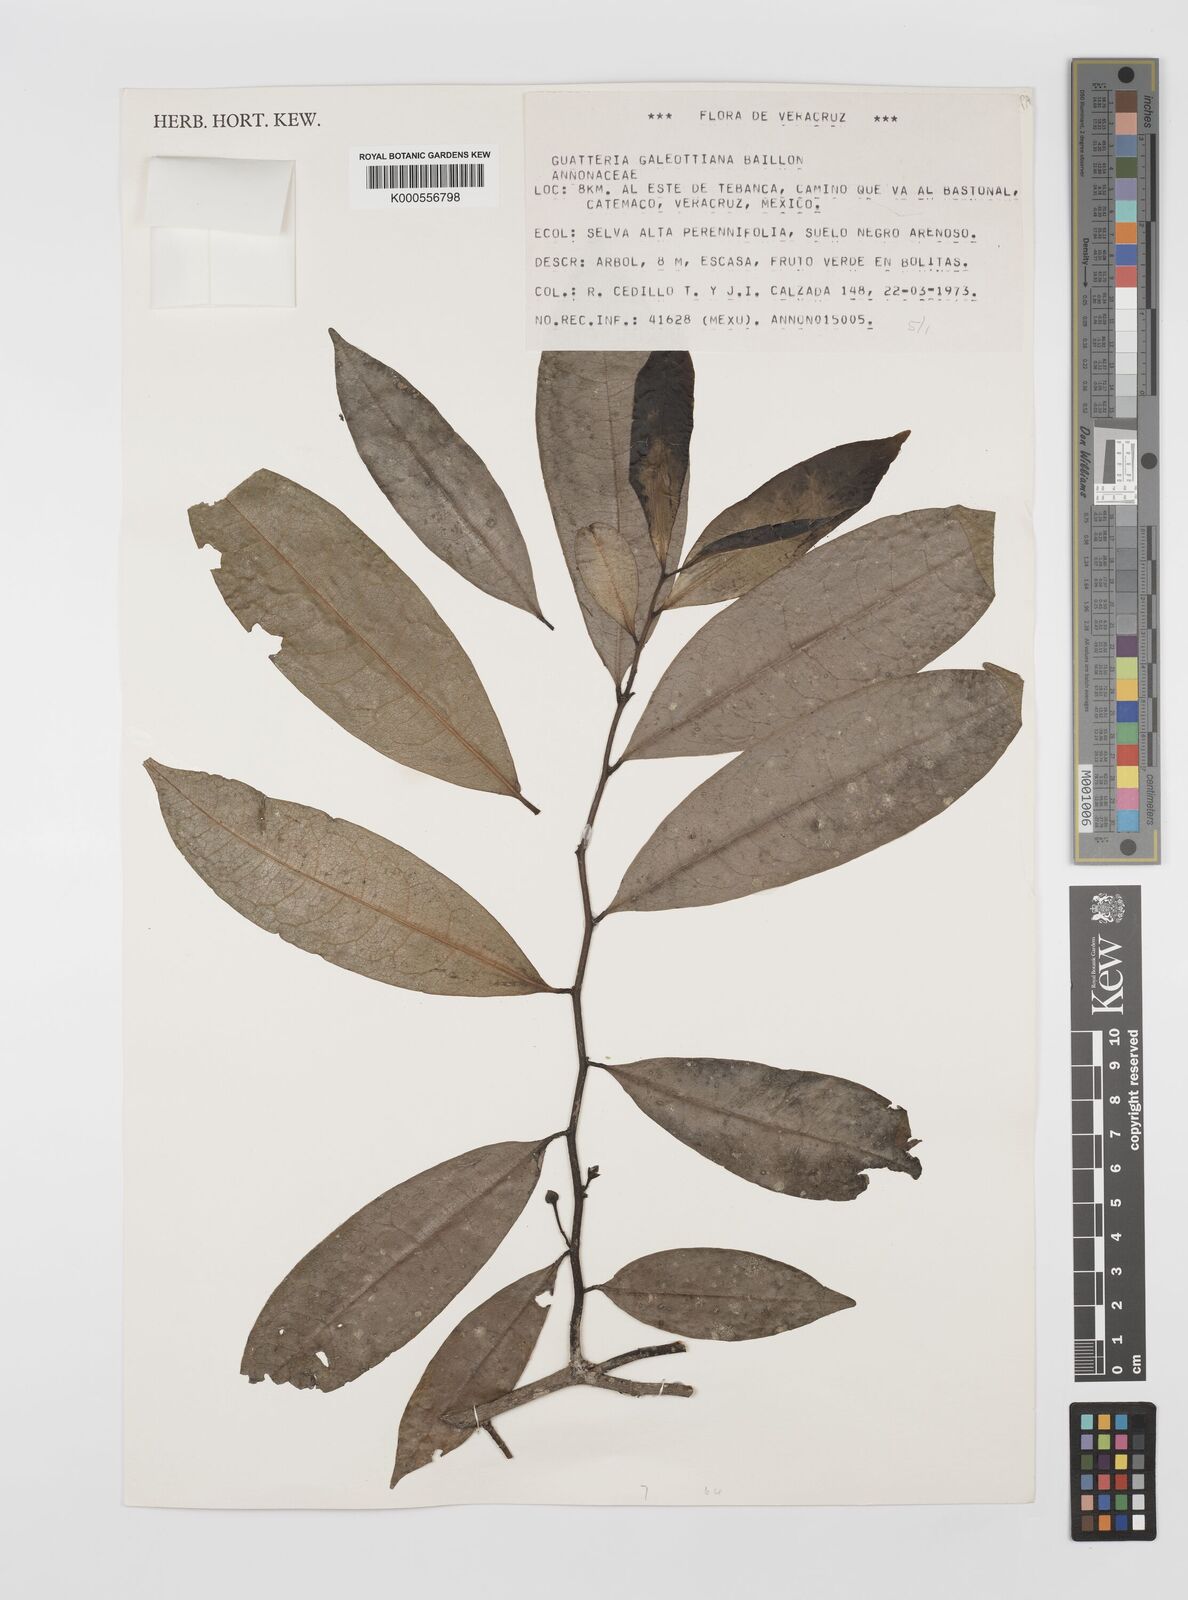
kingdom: Plantae
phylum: Tracheophyta
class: Magnoliopsida
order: Magnoliales
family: Annonaceae
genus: Guatteria
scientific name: Guatteria galeottiana
